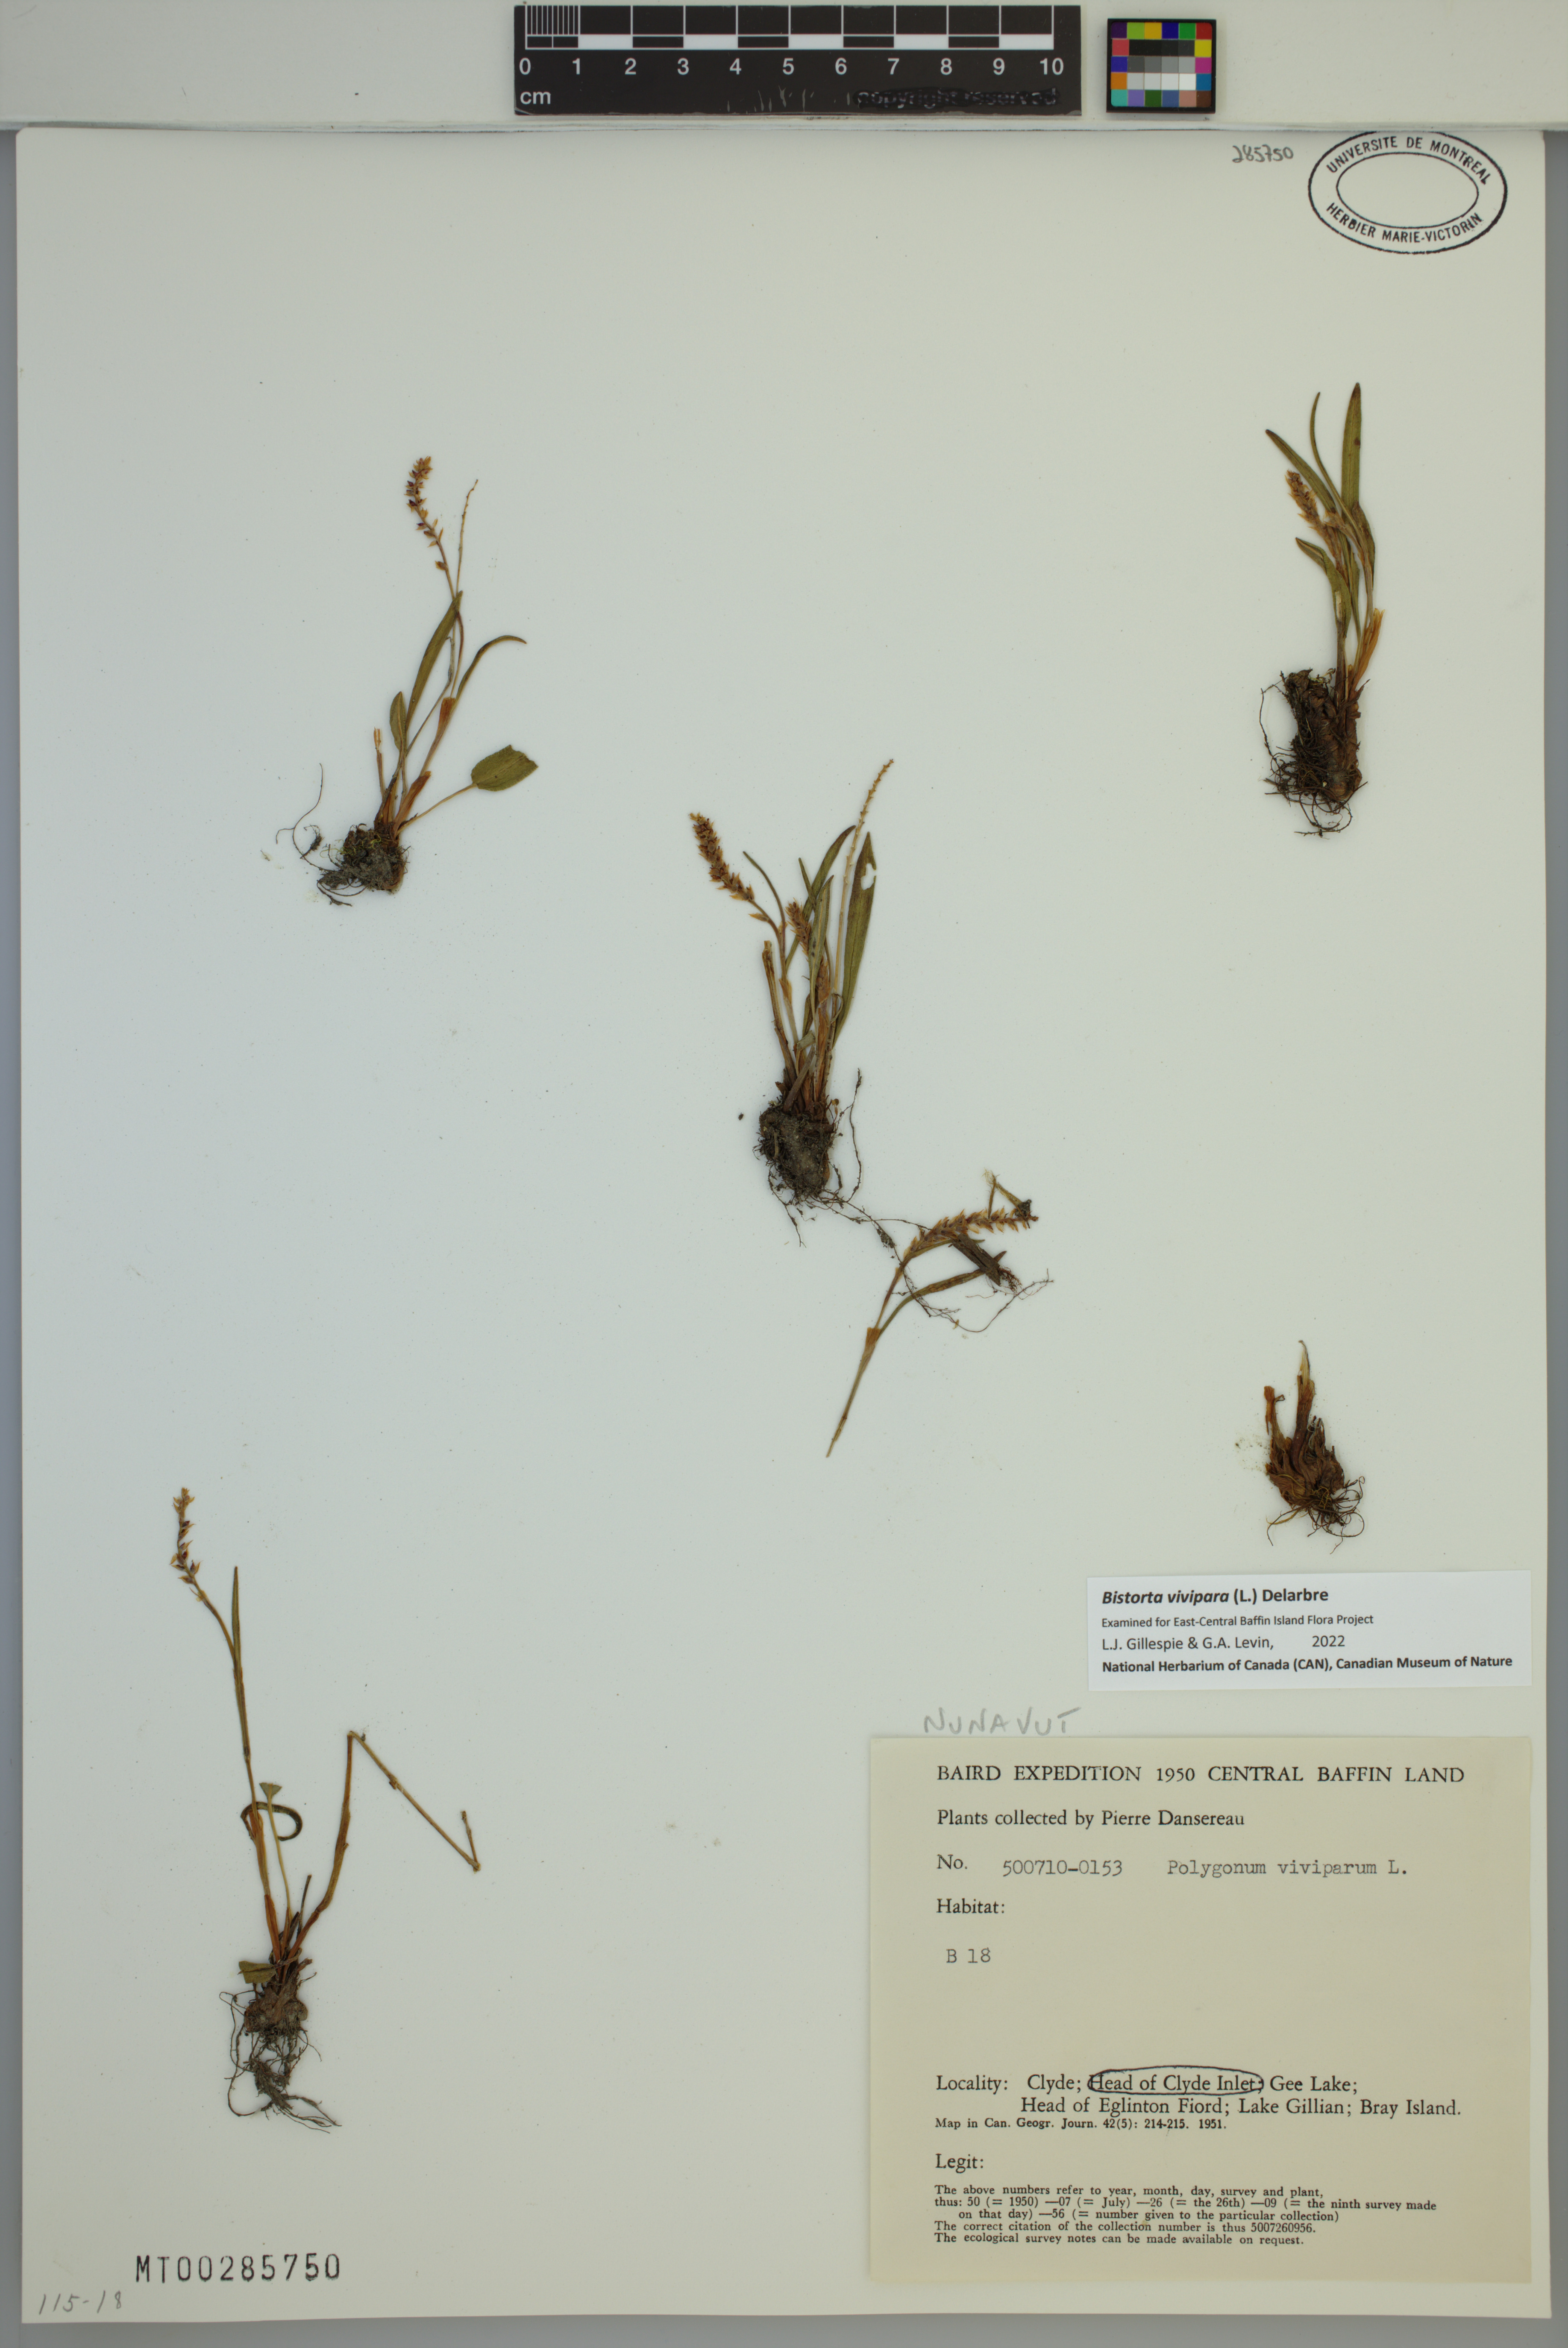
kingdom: Plantae
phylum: Tracheophyta
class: Magnoliopsida
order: Caryophyllales
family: Polygonaceae
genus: Bistorta
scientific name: Bistorta vivipara
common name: Alpine bistort
